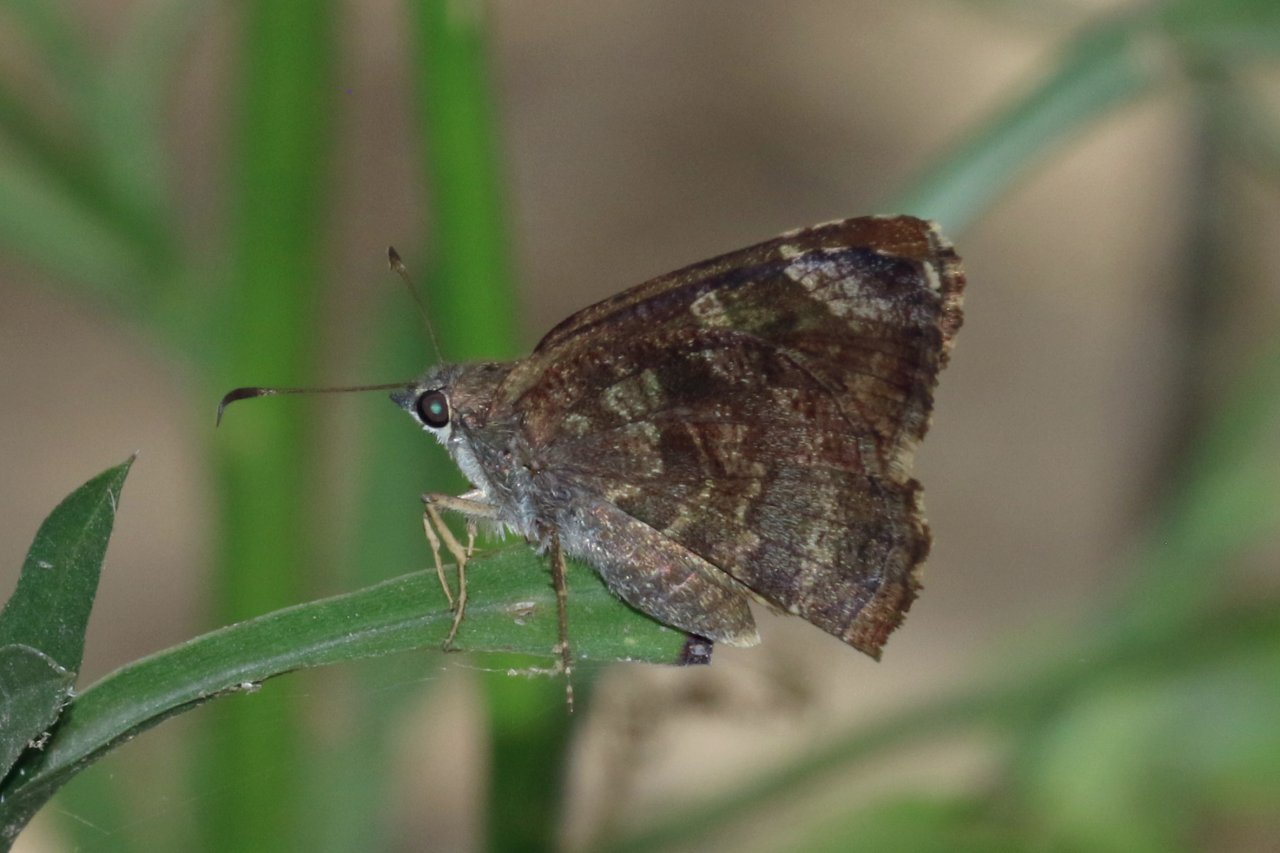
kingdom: Animalia
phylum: Arthropoda
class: Insecta
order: Lepidoptera
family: Hesperiidae
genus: Caicella
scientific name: Caicella calchas
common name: Mimosa Skipper
